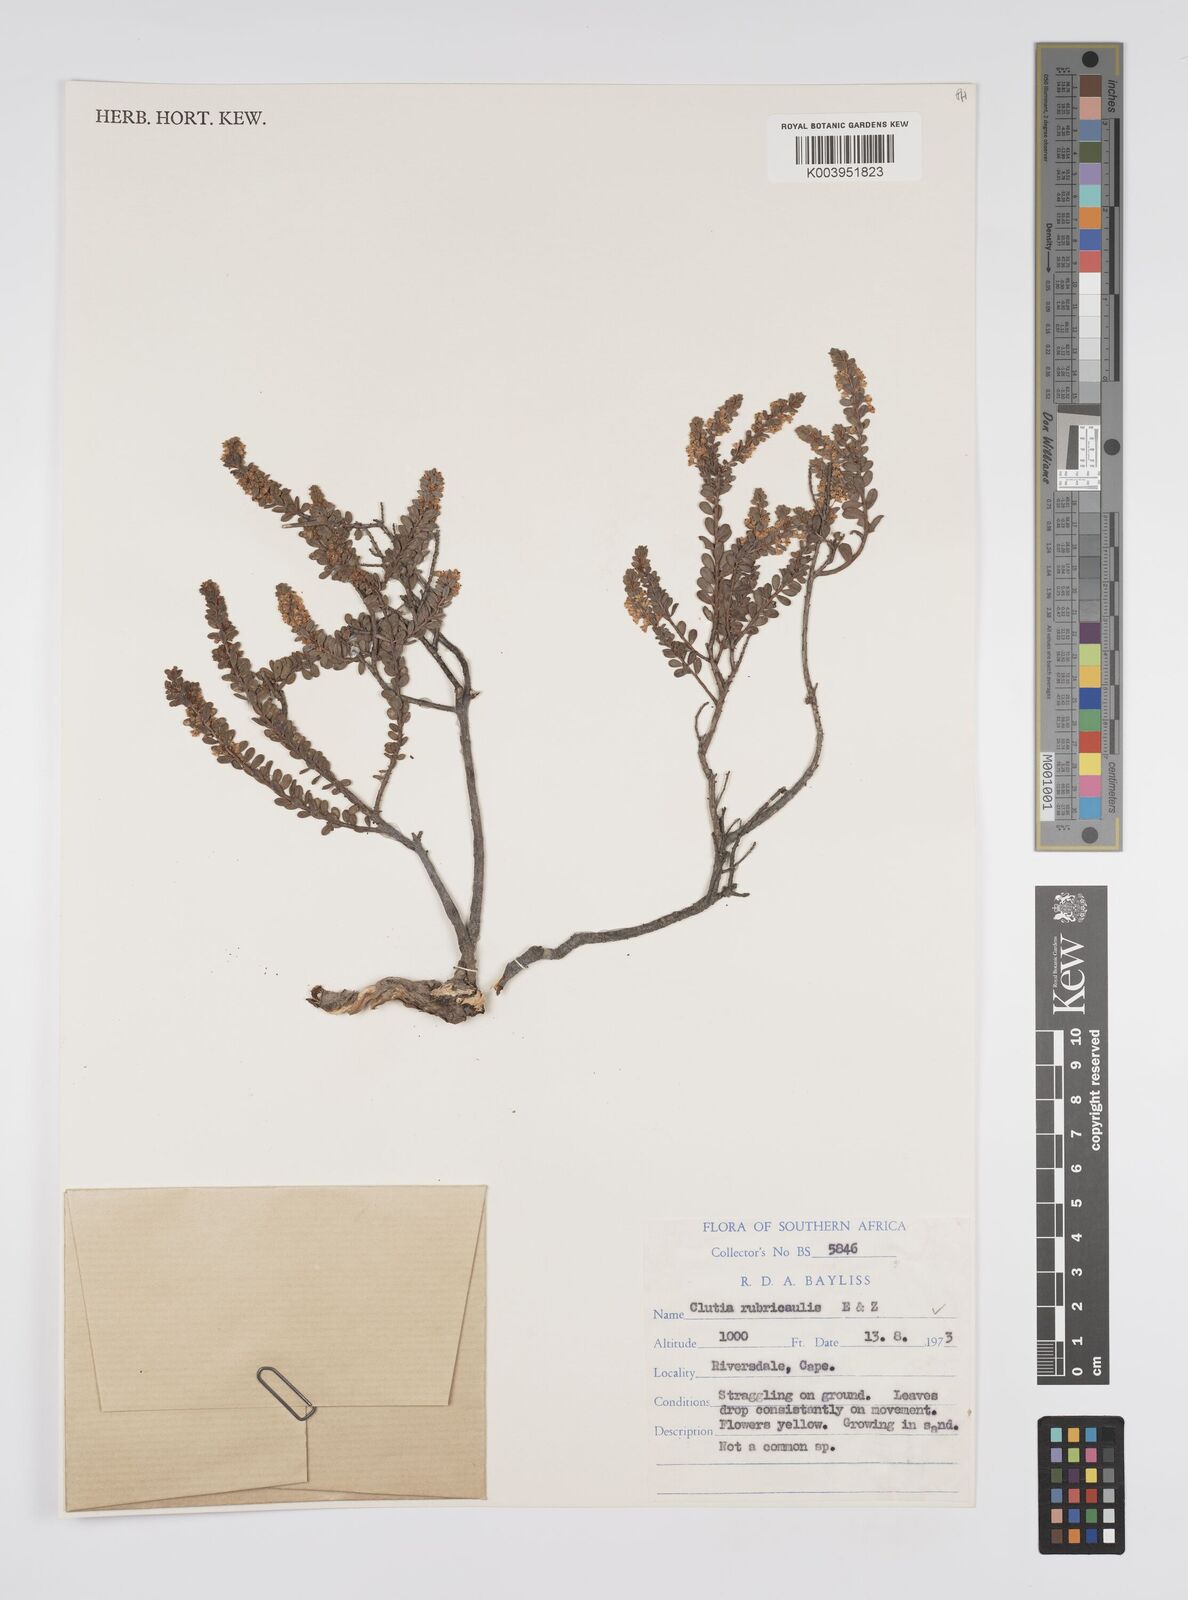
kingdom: Plantae
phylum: Tracheophyta
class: Magnoliopsida
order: Malpighiales
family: Peraceae
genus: Clutia
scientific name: Clutia rubricaulis
